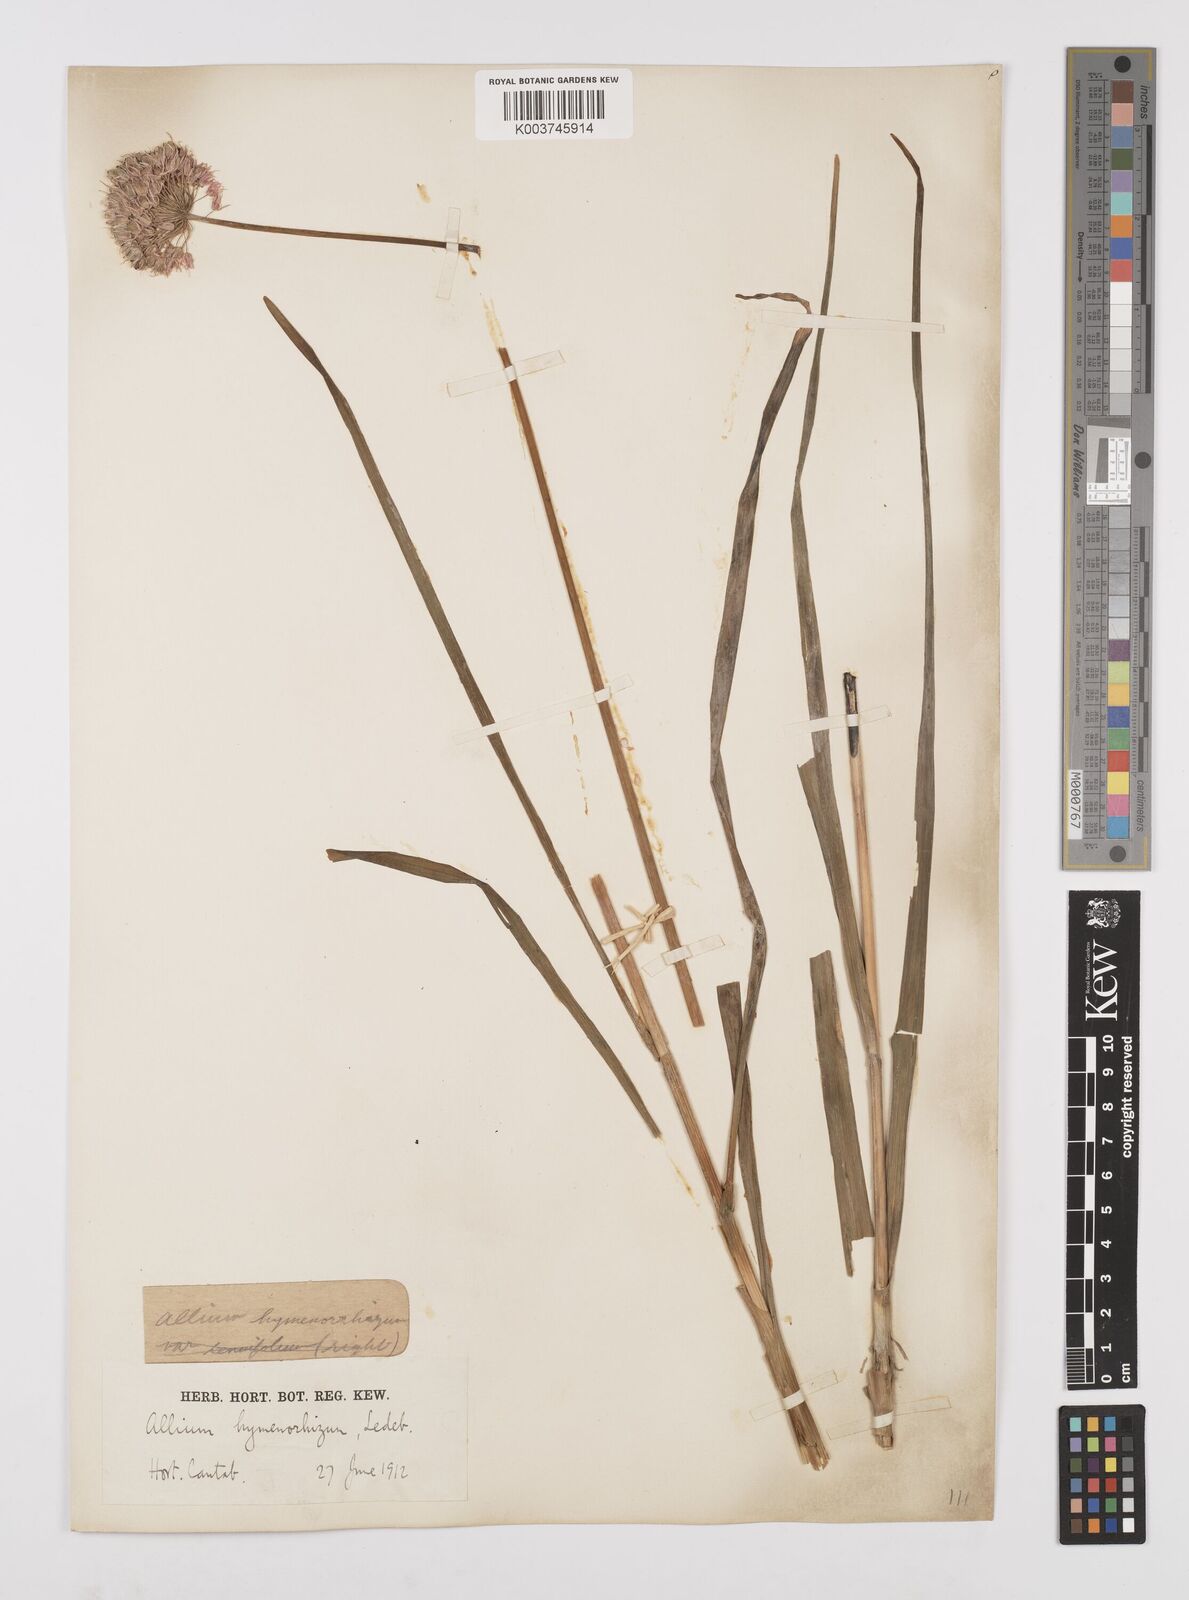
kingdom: Plantae
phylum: Tracheophyta
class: Liliopsida
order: Asparagales
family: Amaryllidaceae
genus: Allium
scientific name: Allium hymenorhizum
